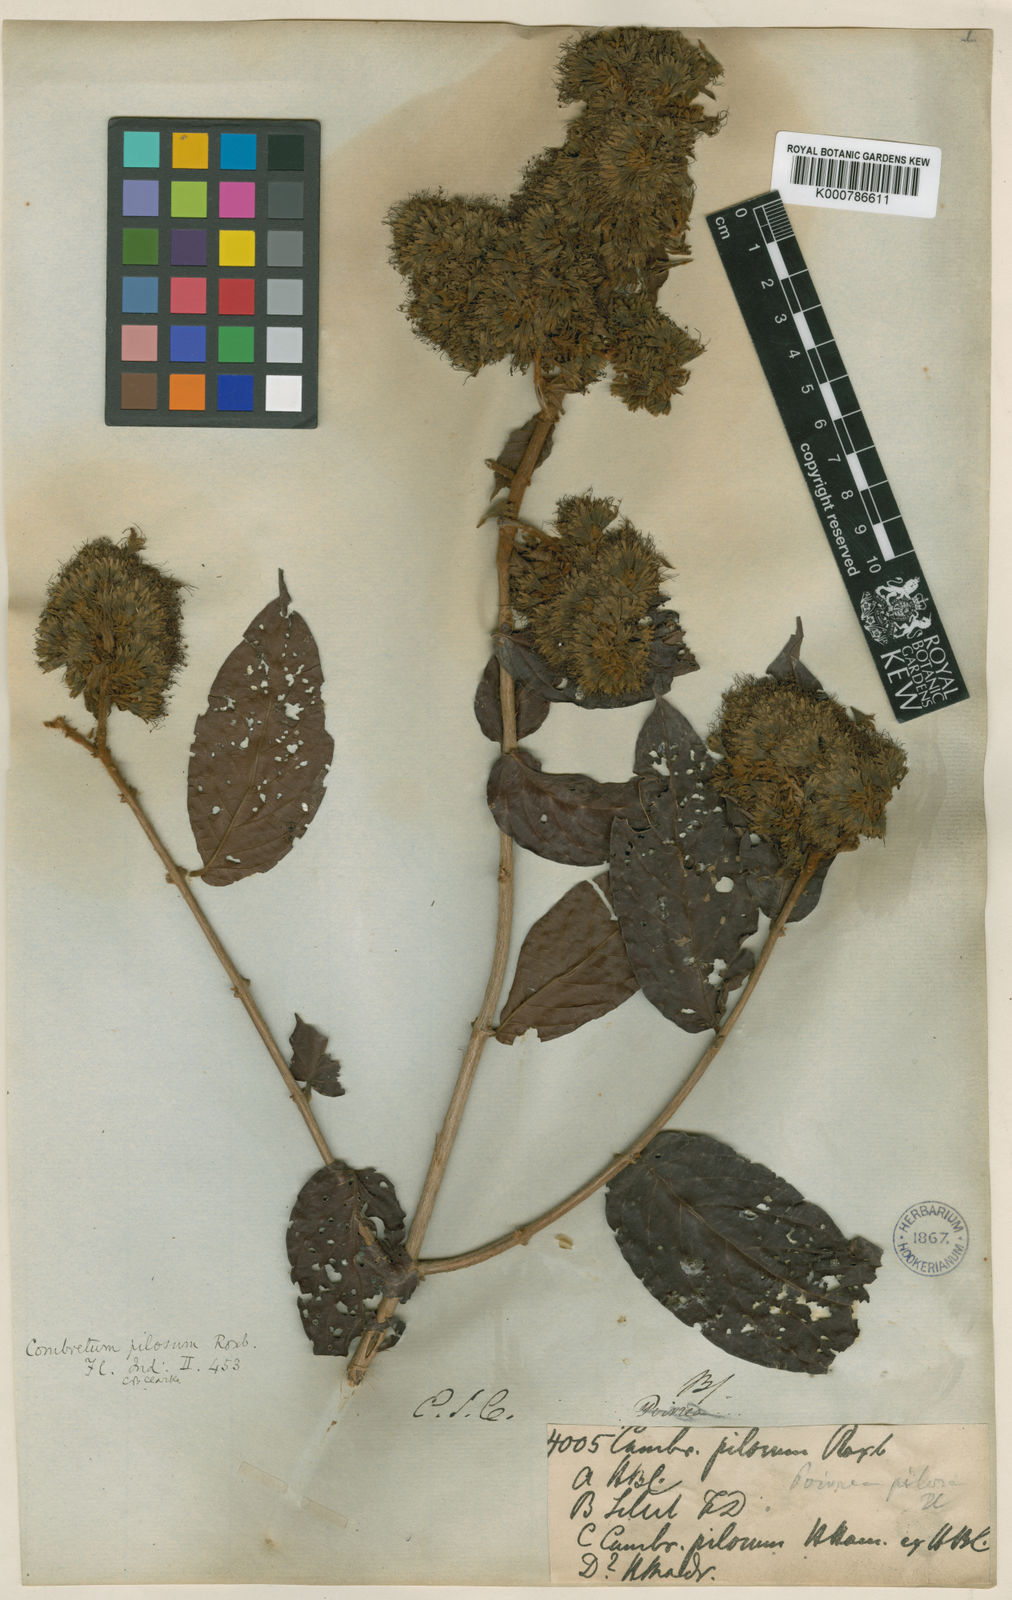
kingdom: Plantae
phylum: Tracheophyta
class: Magnoliopsida
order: Myrtales
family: Combretaceae
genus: Combretum
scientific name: Combretum
